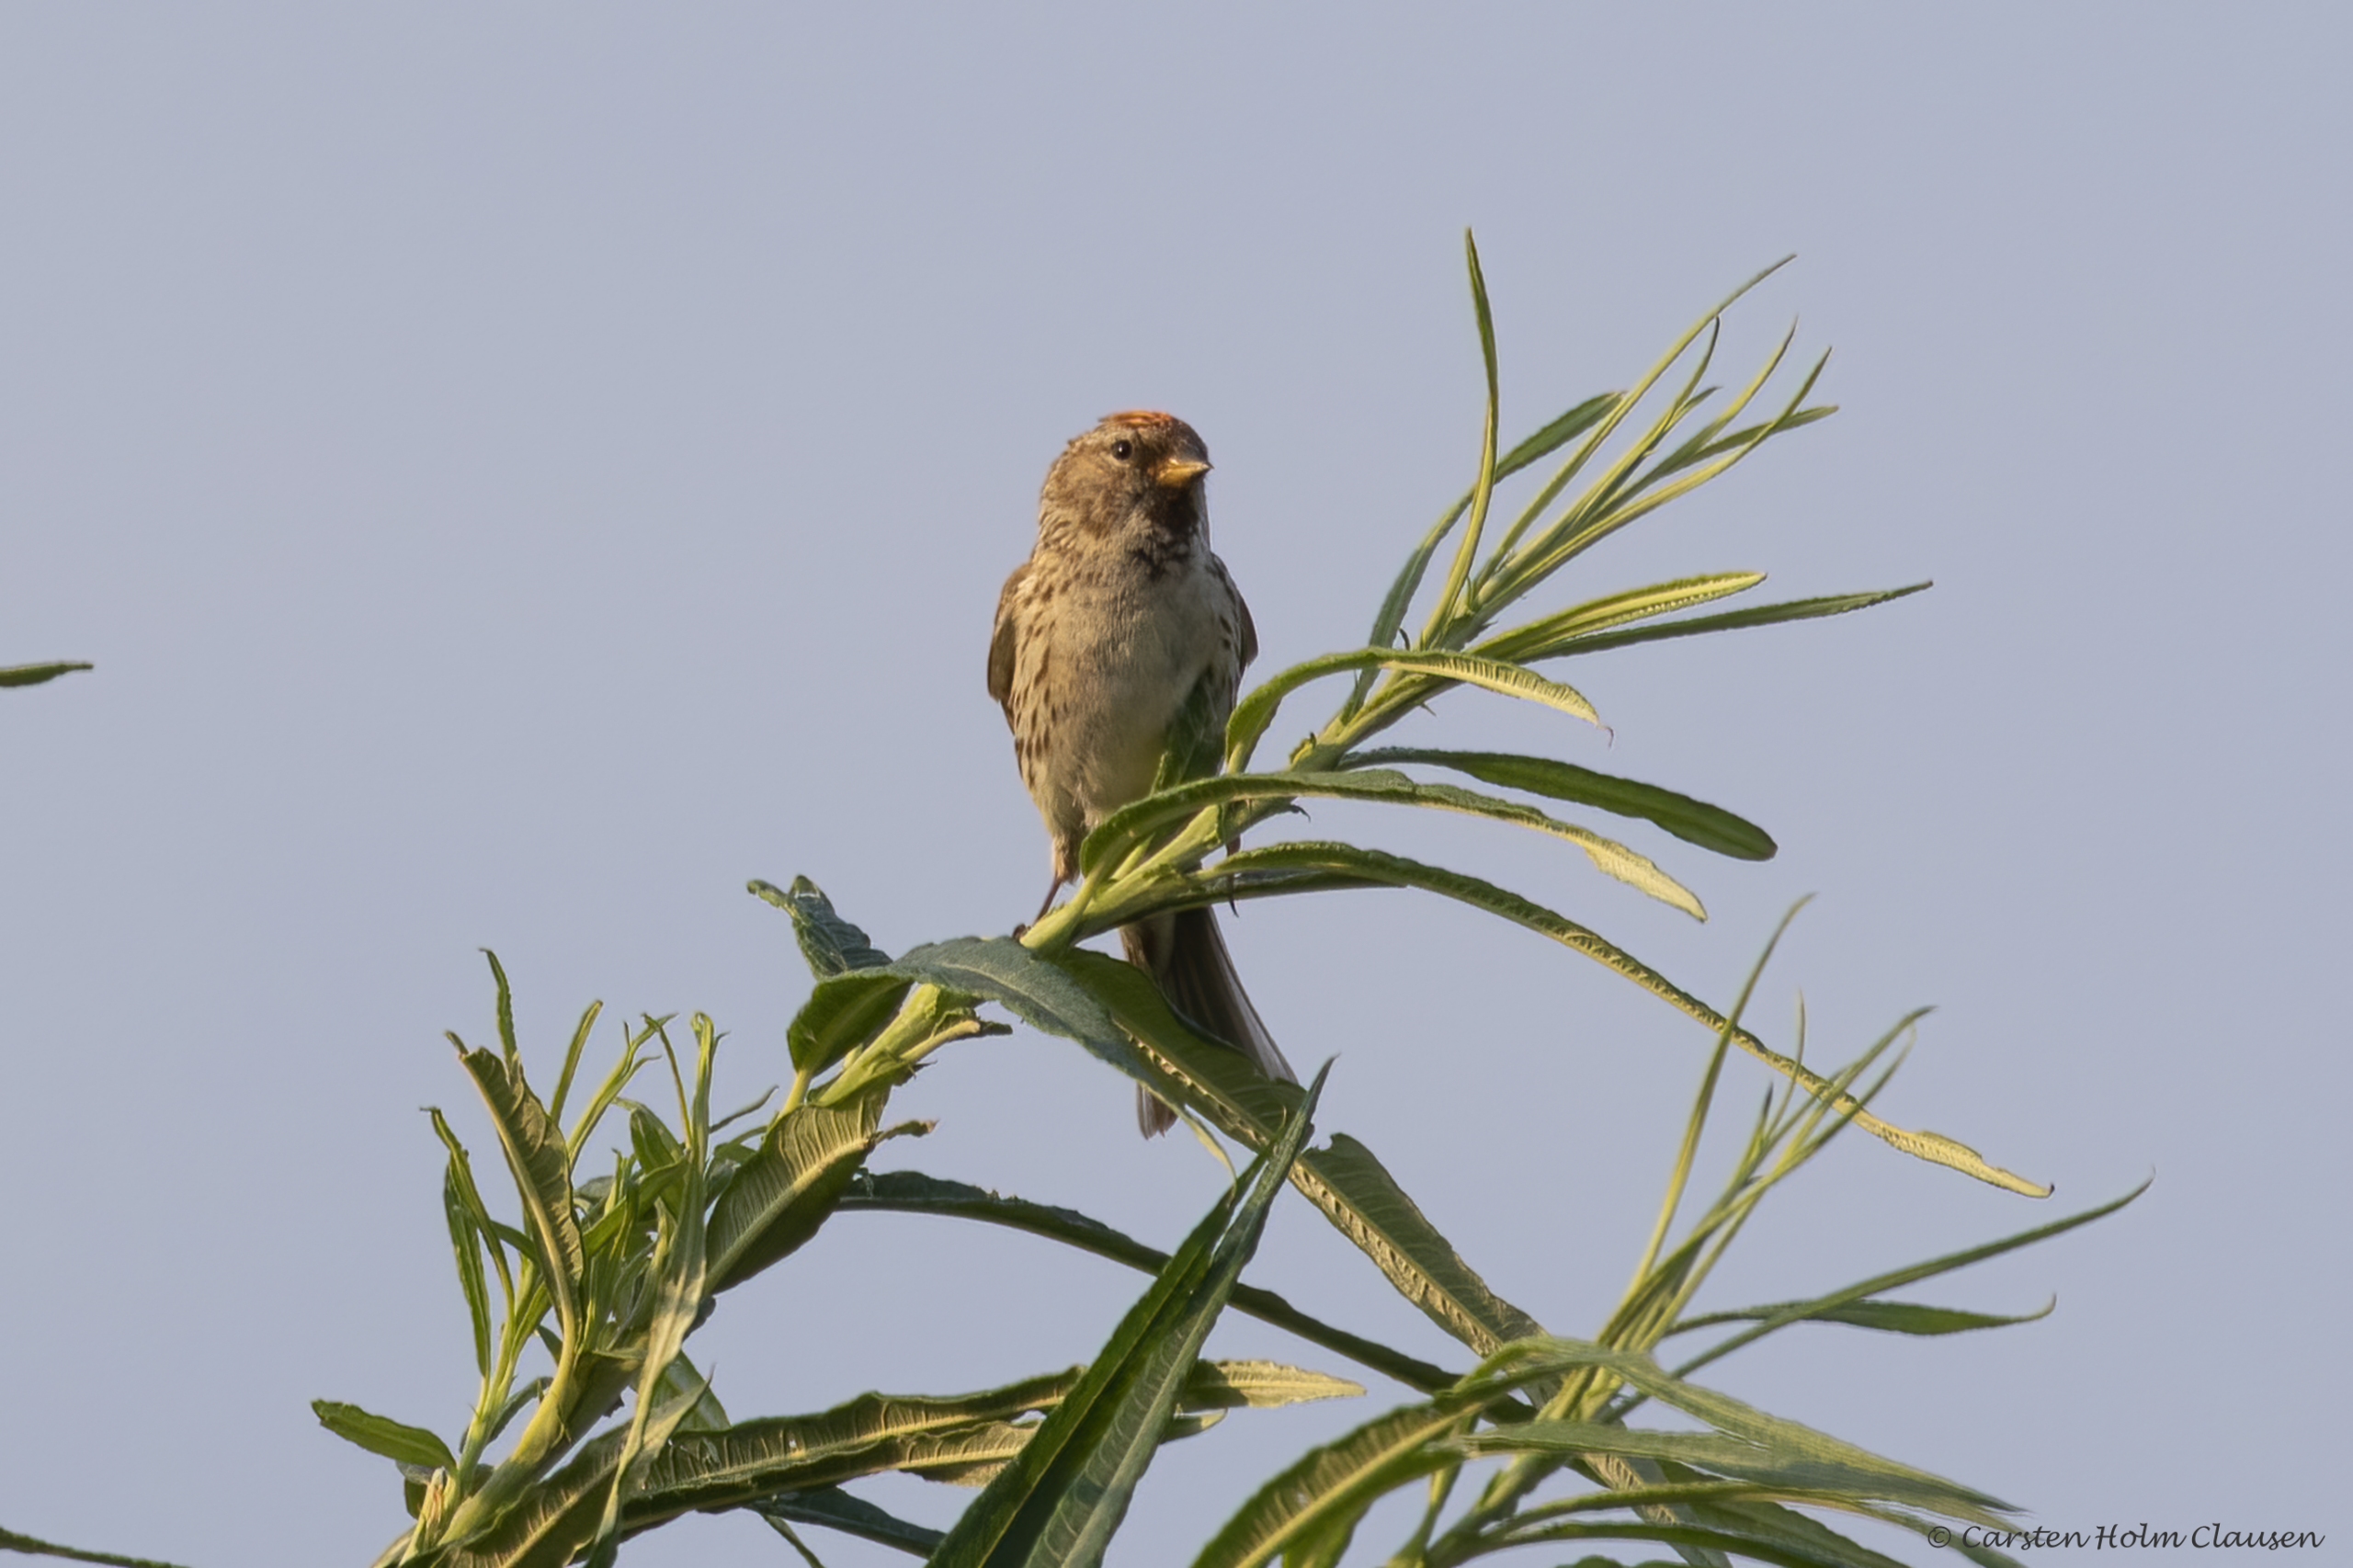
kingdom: Animalia
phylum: Chordata
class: Aves
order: Passeriformes
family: Fringillidae
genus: Acanthis
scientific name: Acanthis flammea
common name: Lille gråsisken
